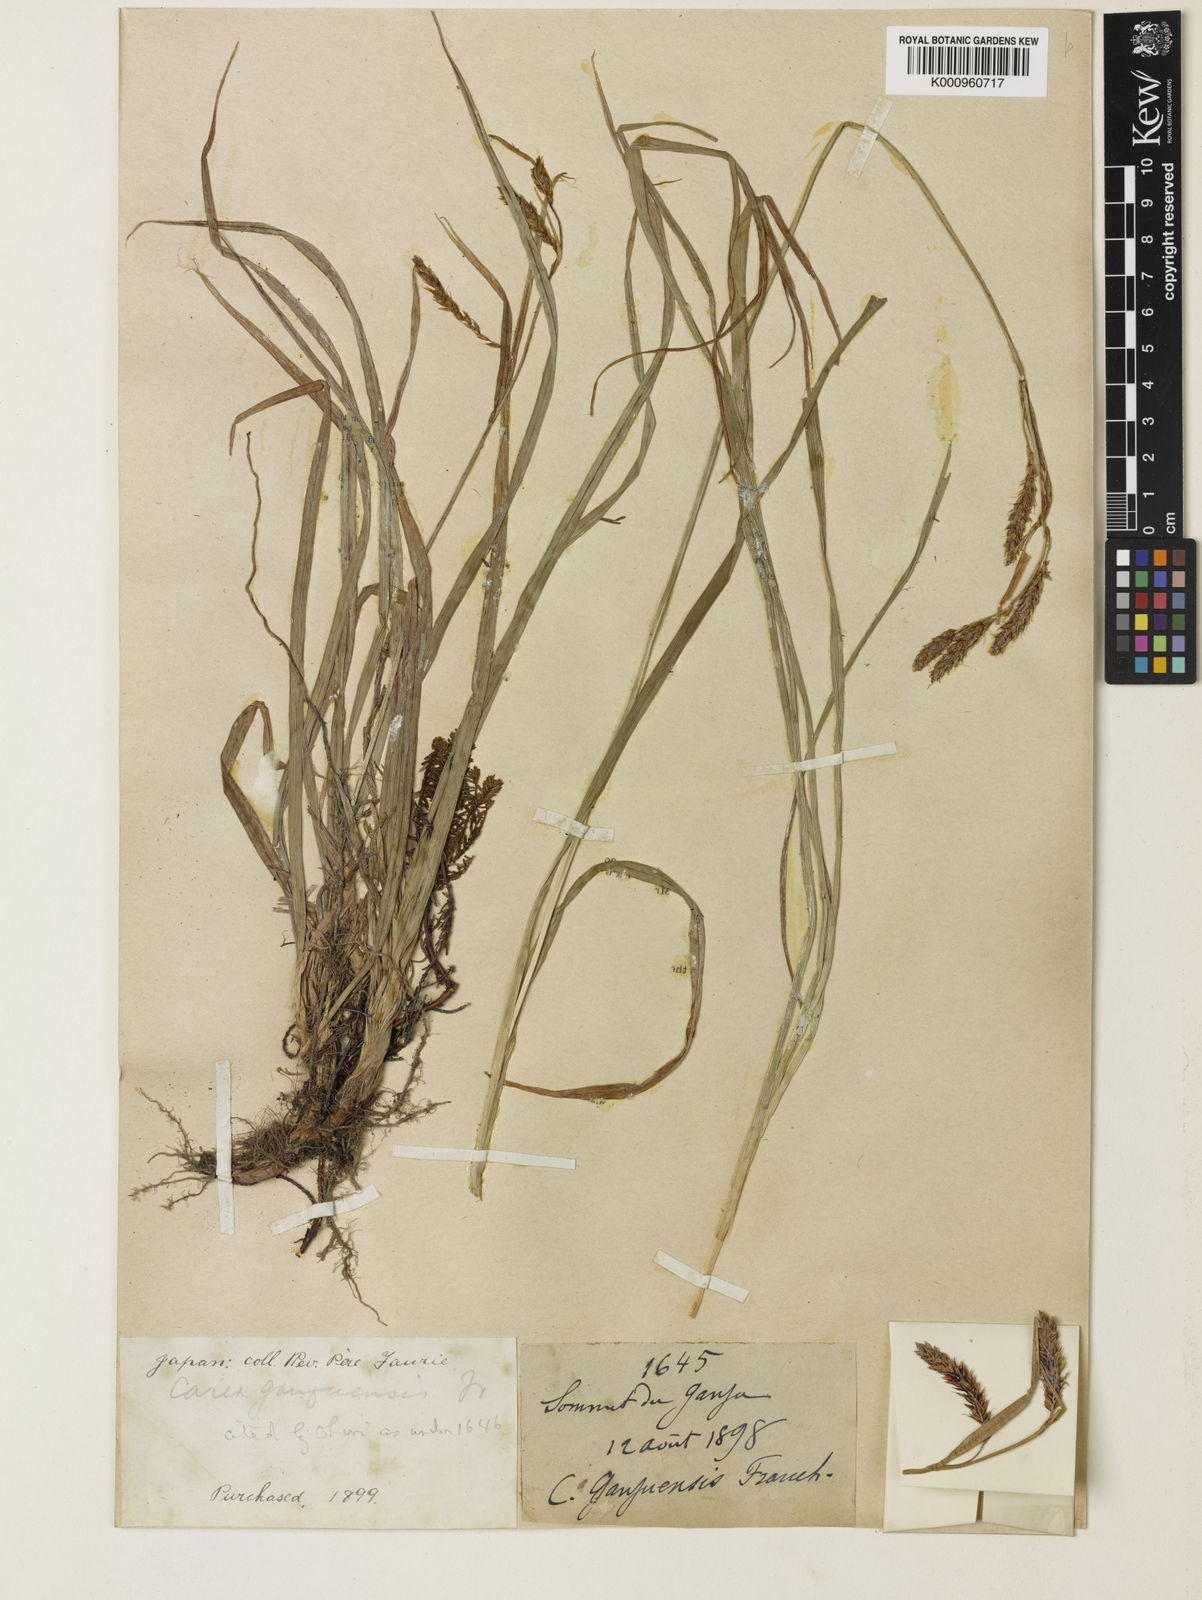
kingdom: Plantae
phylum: Tracheophyta
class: Liliopsida
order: Poales
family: Cyperaceae
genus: Carex
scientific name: Carex macrochaeta
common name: Alaska large awn sedge
